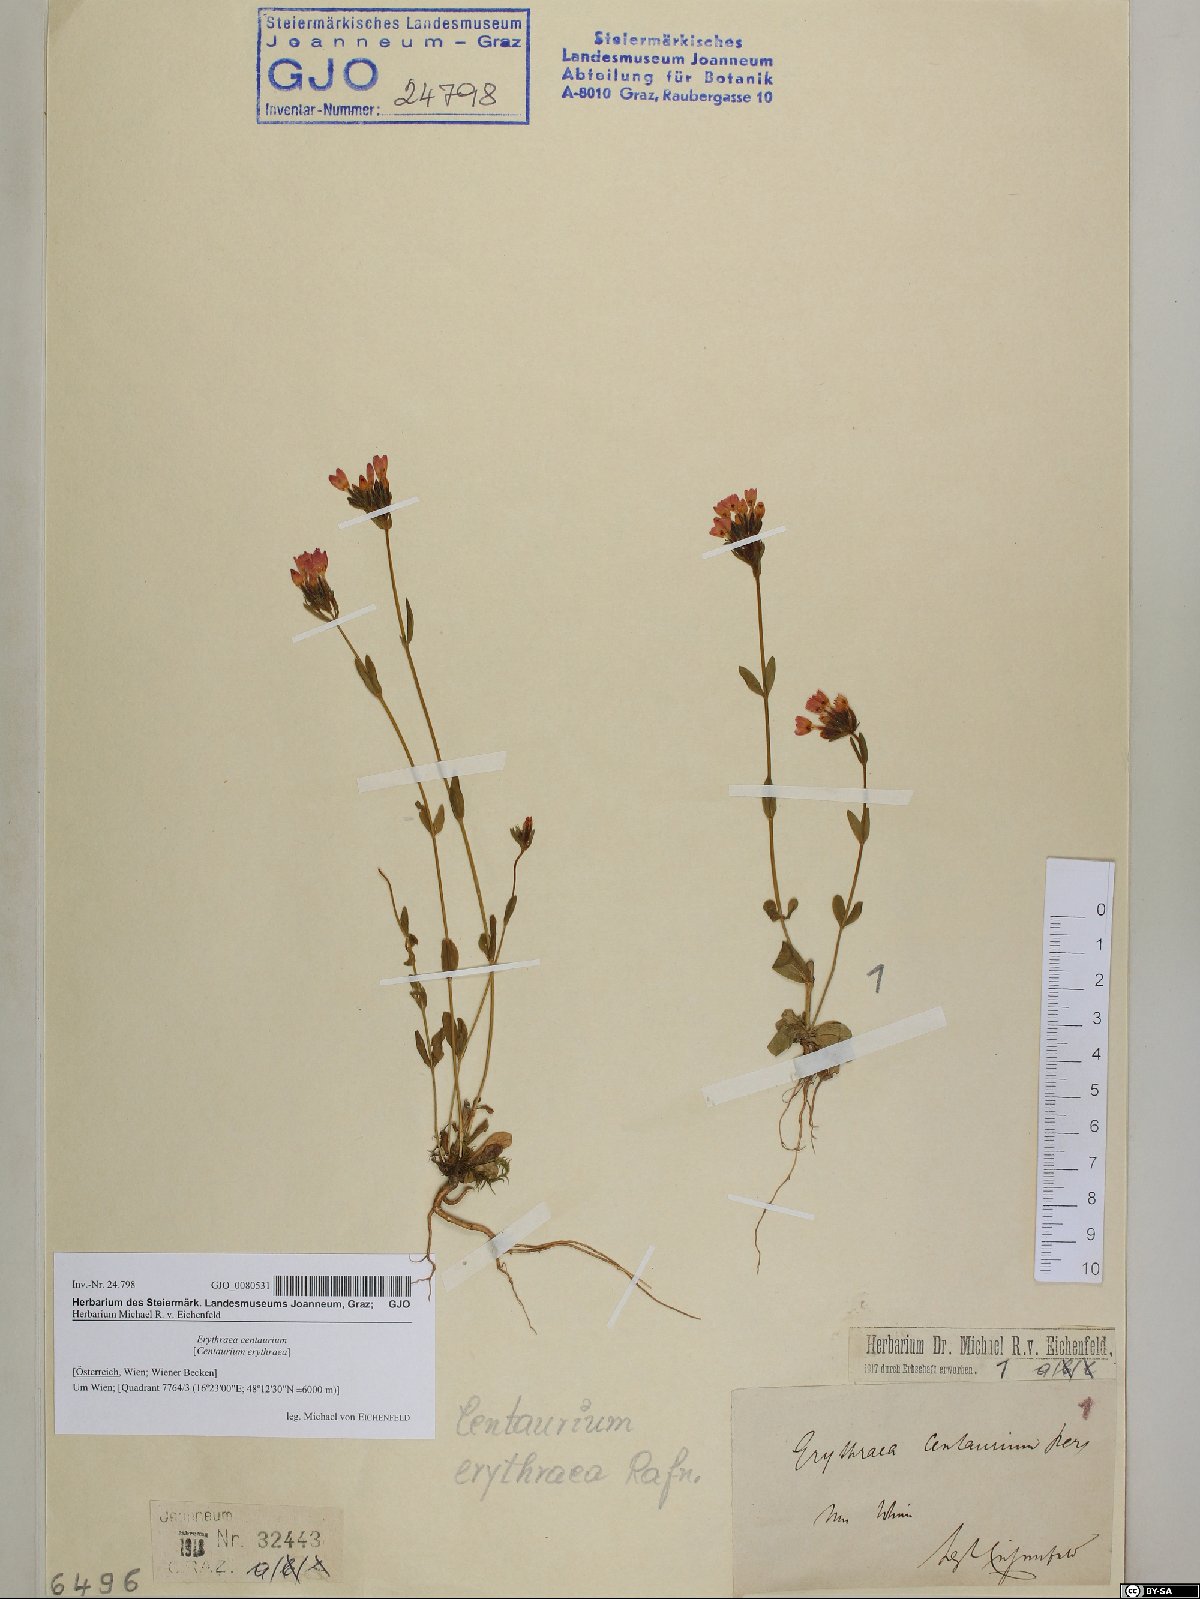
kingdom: Plantae
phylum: Tracheophyta
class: Magnoliopsida
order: Gentianales
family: Gentianaceae
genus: Centaurium
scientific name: Centaurium erythraea
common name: Common centaury
